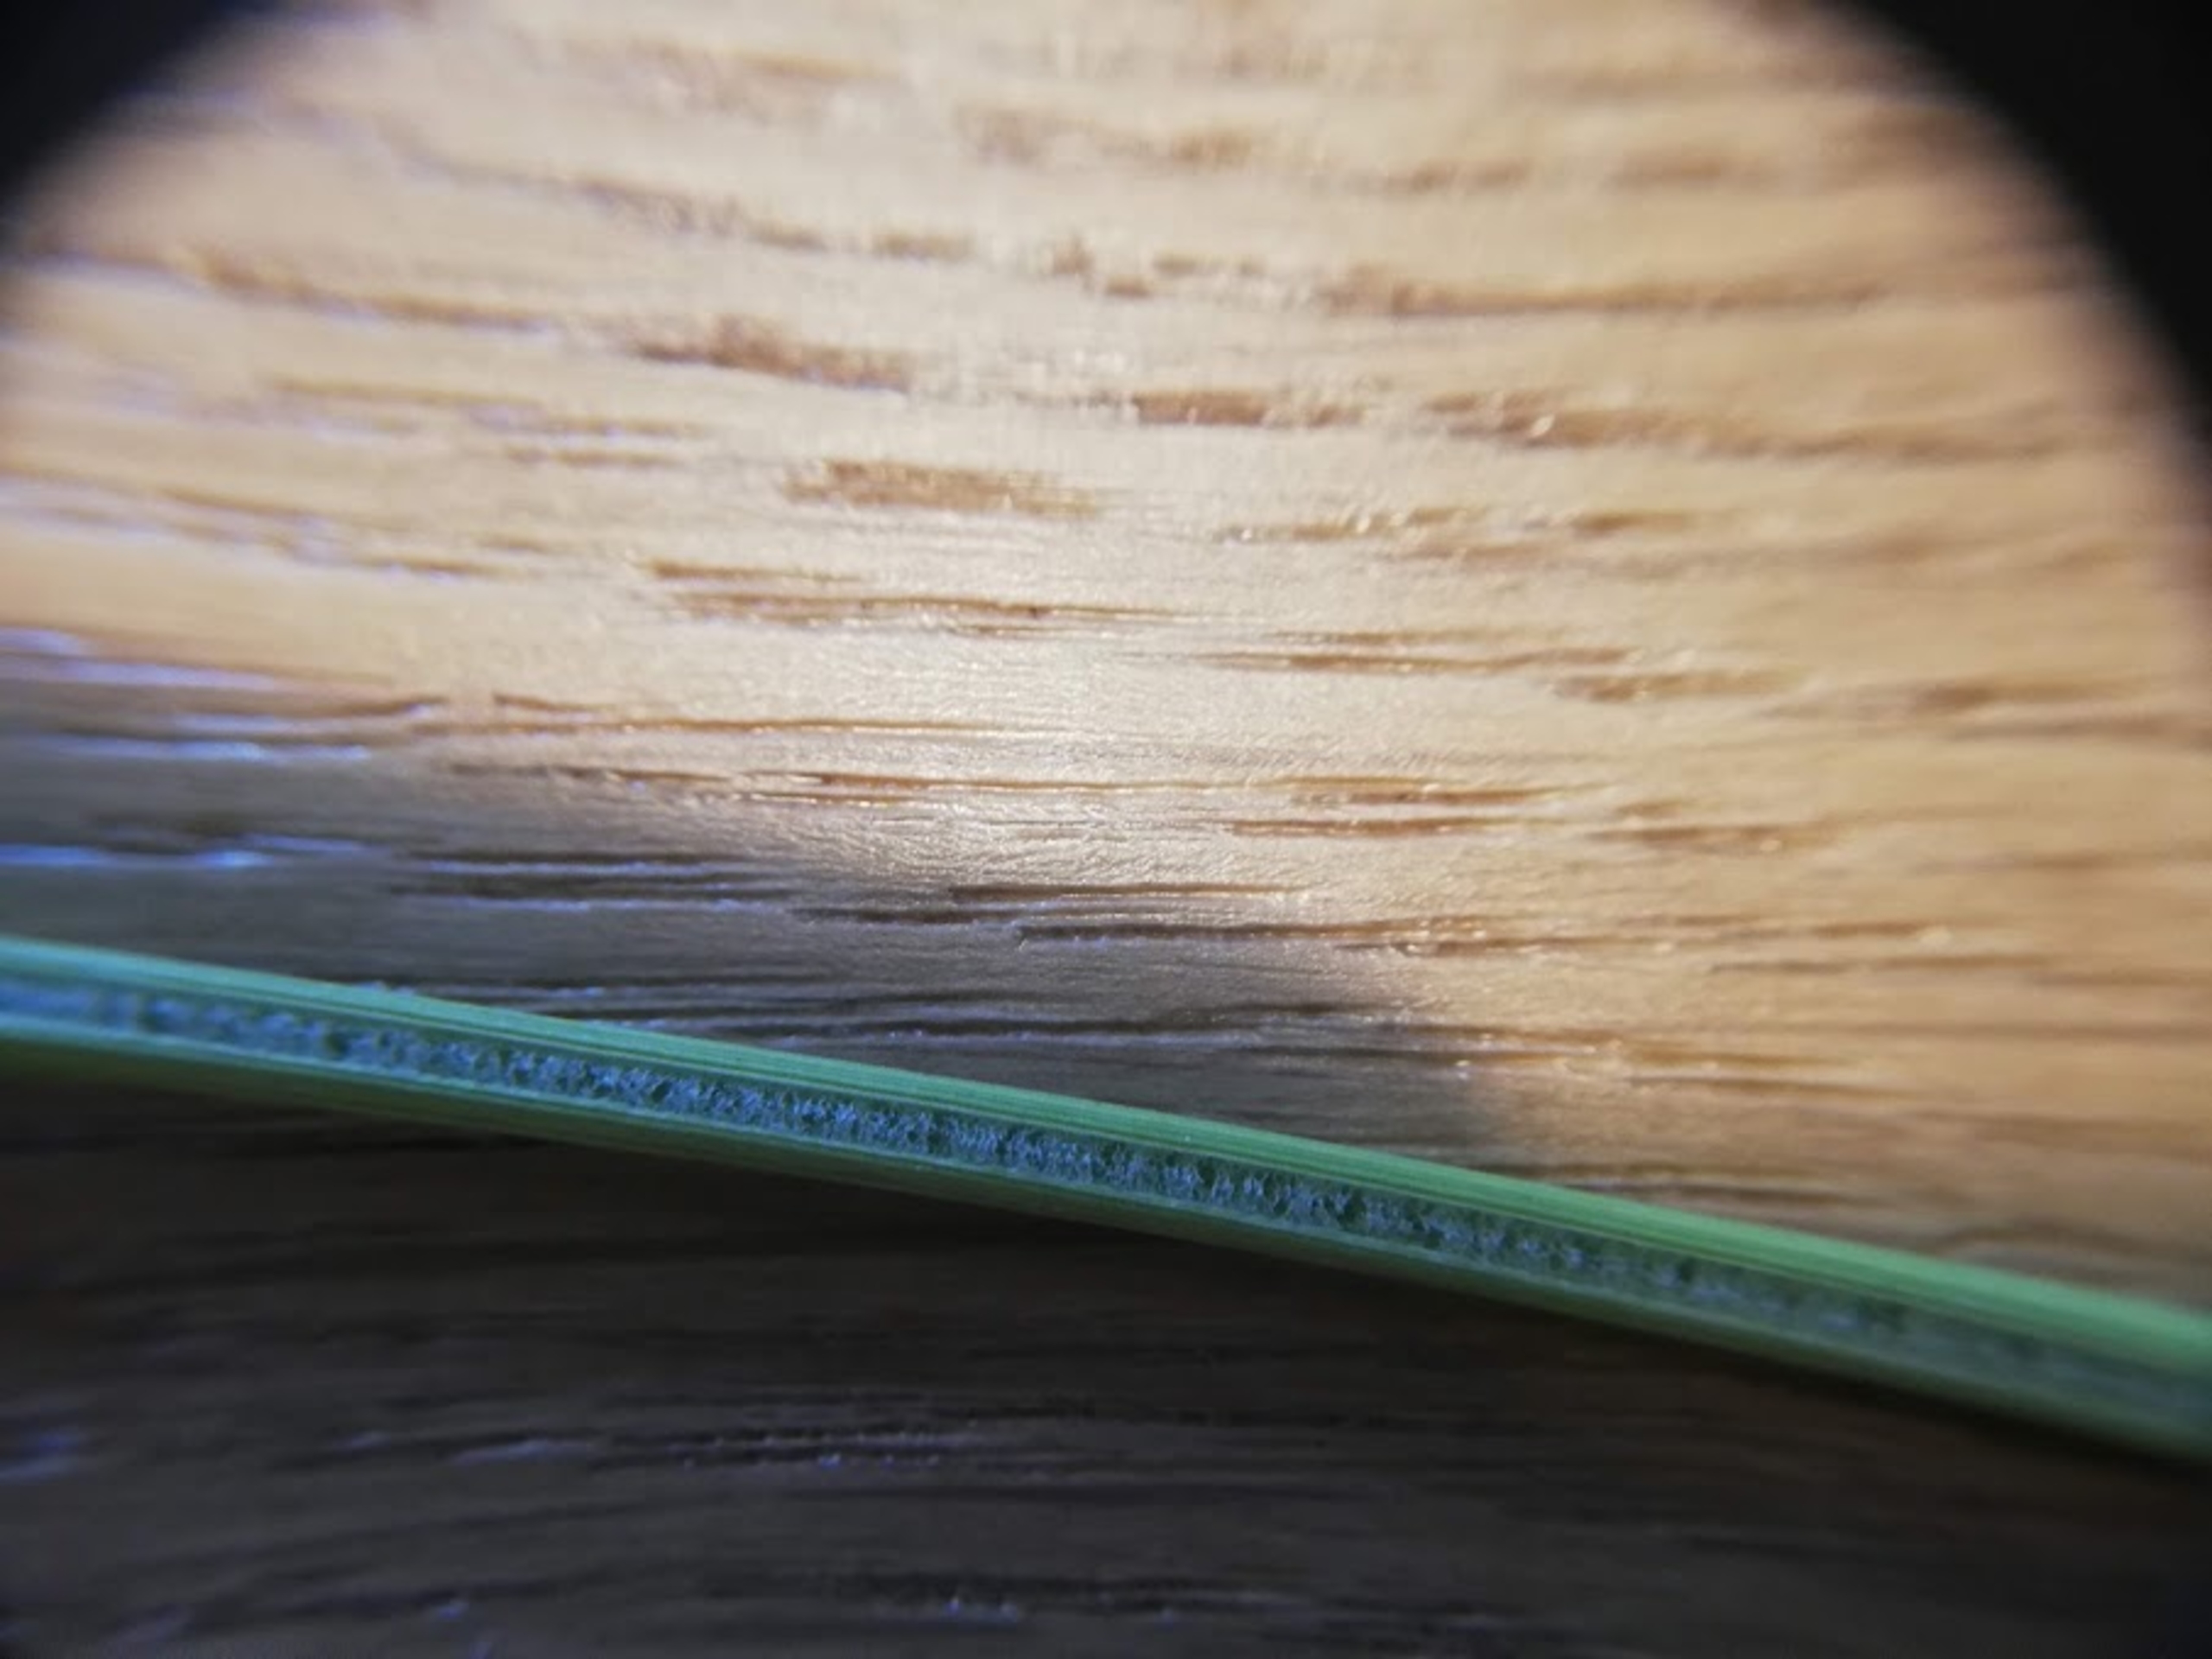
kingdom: Plantae
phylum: Tracheophyta
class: Liliopsida
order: Poales
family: Juncaceae
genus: Juncus
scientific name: Juncus conglomeratus
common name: Knop-siv
